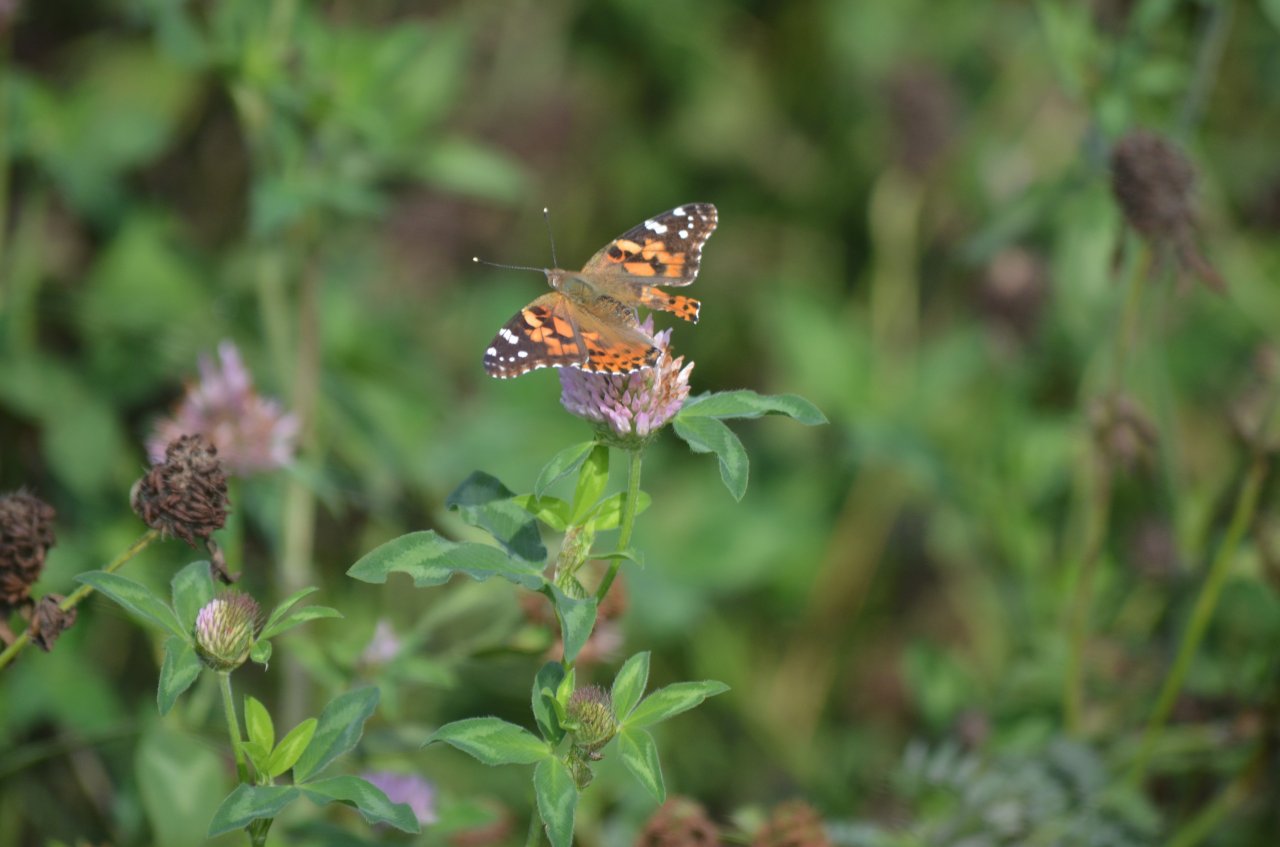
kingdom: Animalia
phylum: Arthropoda
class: Insecta
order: Lepidoptera
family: Nymphalidae
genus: Vanessa
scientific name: Vanessa cardui
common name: Painted Lady
